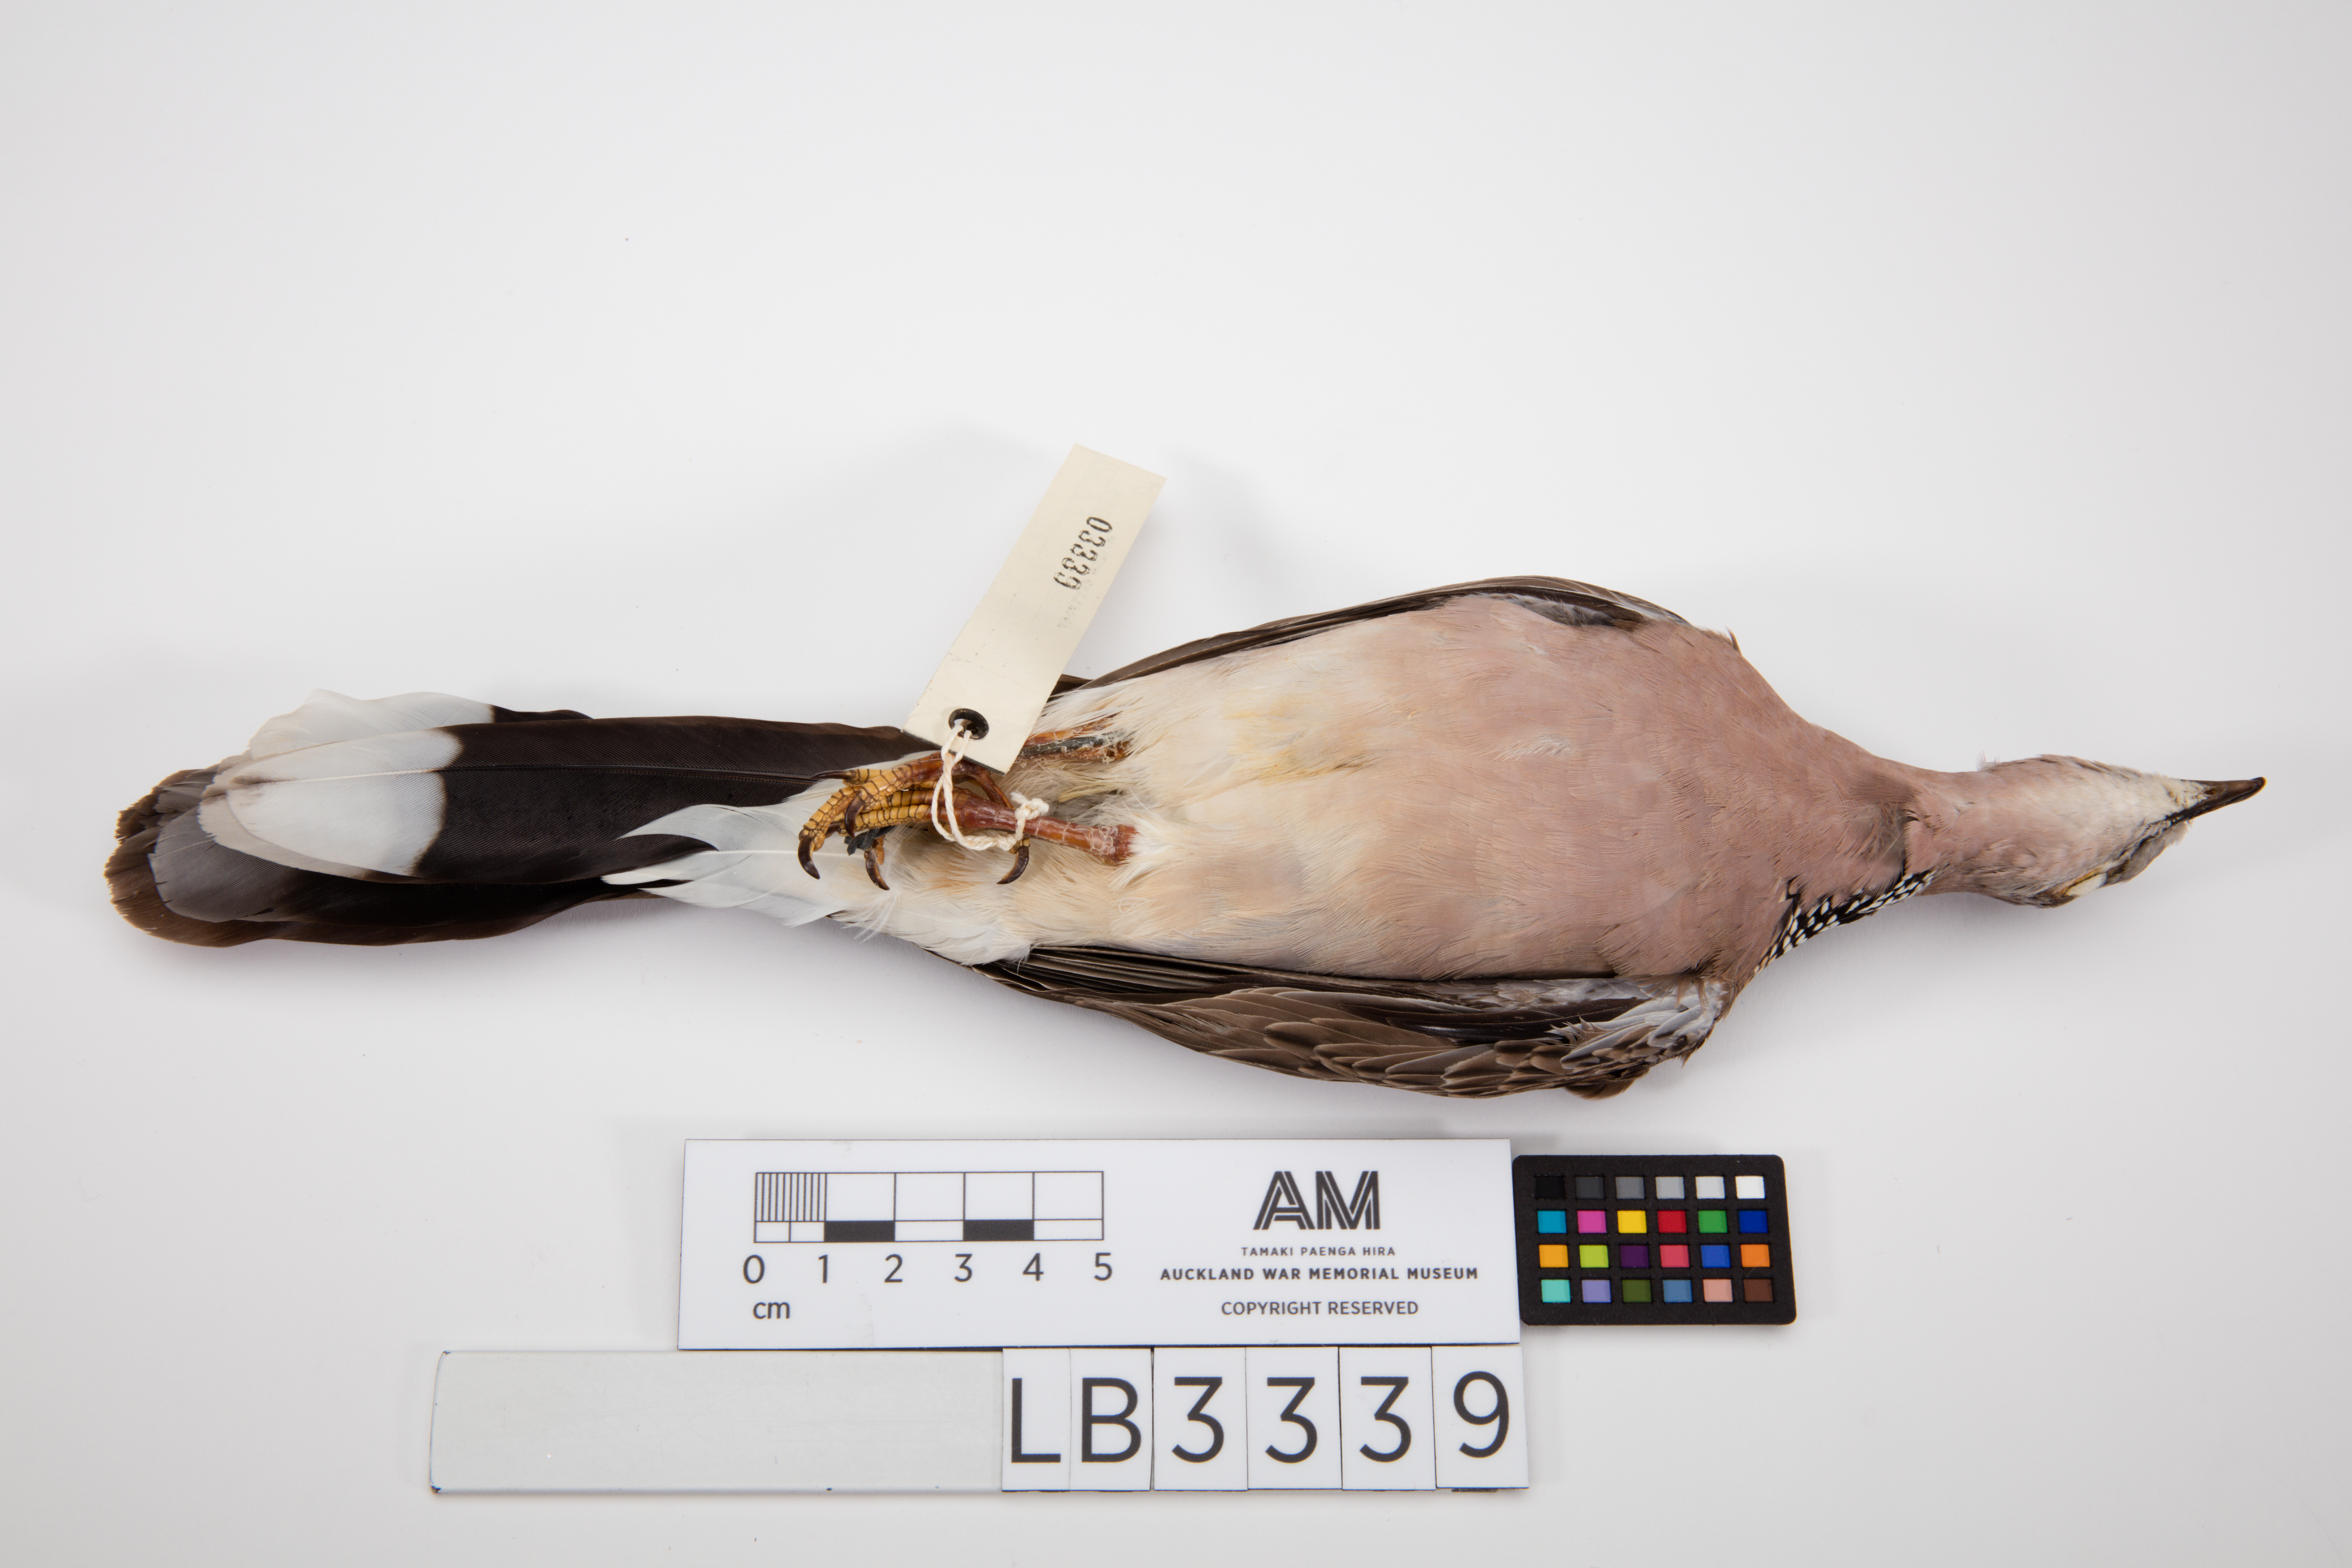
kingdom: Animalia
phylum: Chordata
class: Aves
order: Columbiformes
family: Columbidae
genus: Spilopelia
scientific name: Spilopelia chinensis
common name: Spotted dove
